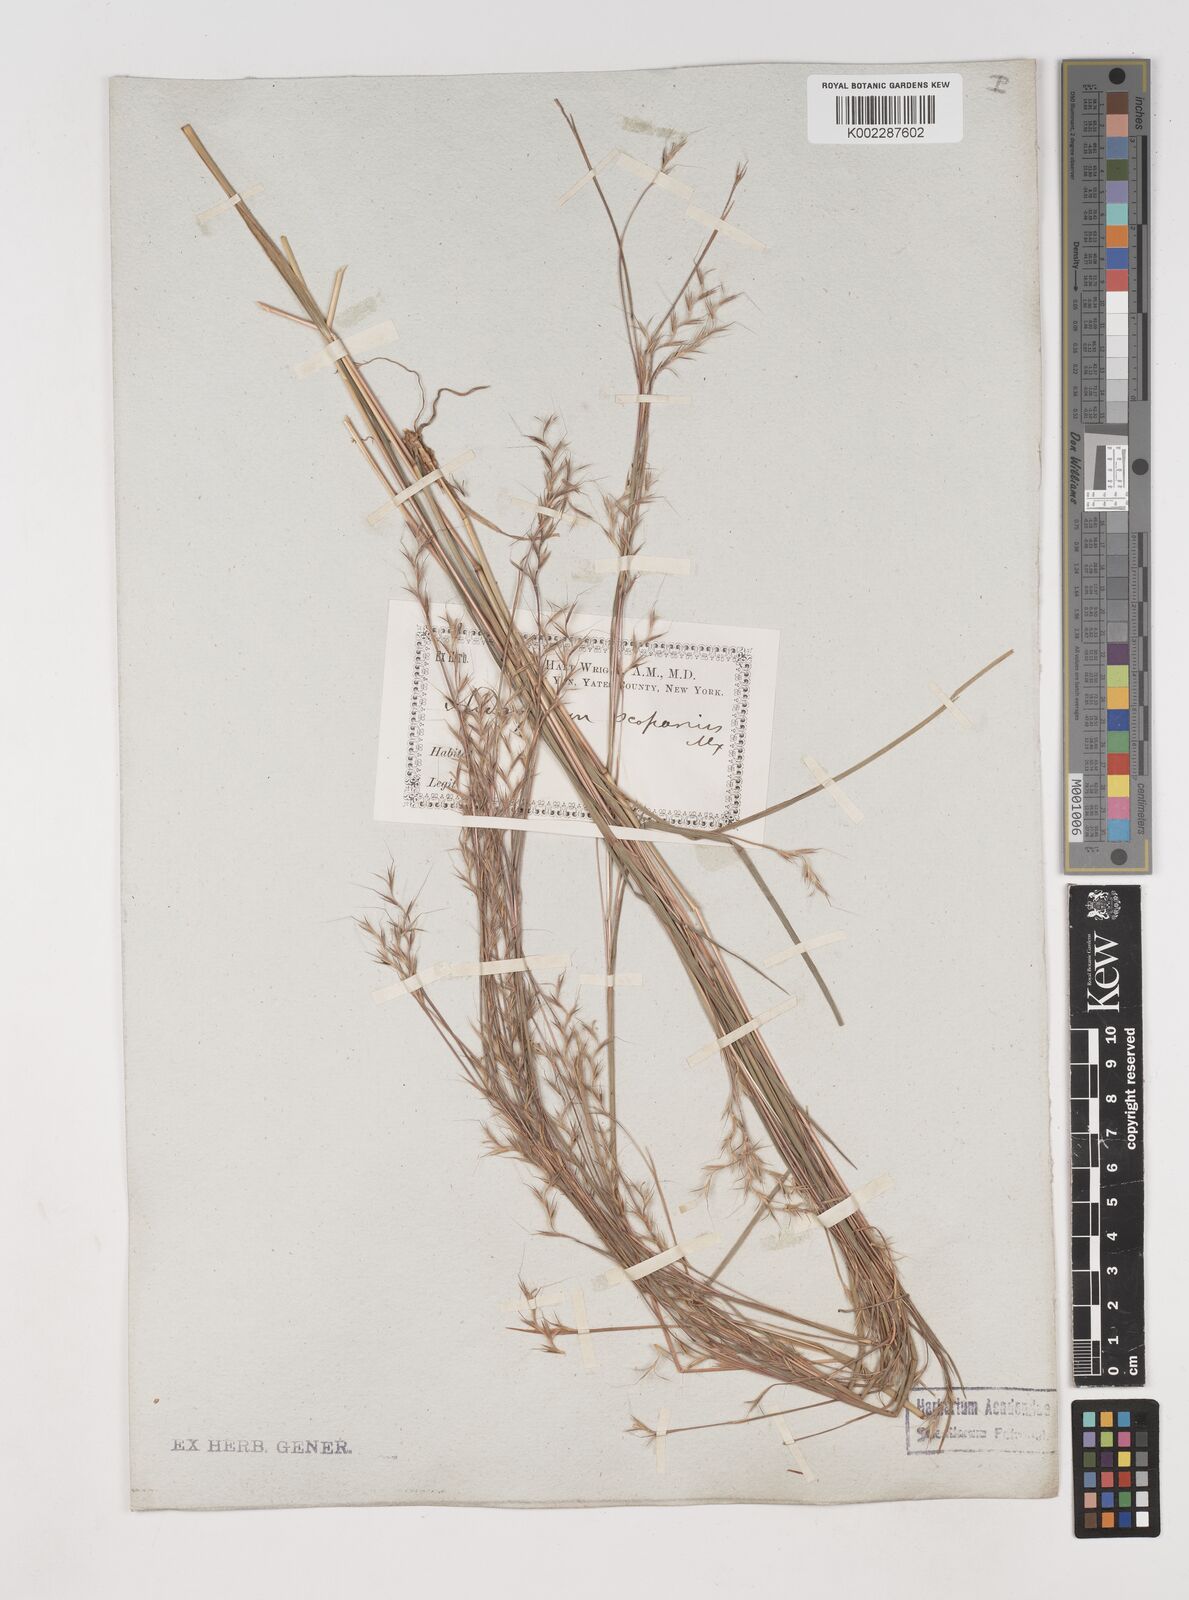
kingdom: Plantae
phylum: Tracheophyta
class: Liliopsida
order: Poales
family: Poaceae
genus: Schizachyrium
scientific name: Schizachyrium scoparium
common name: Little bluestem
